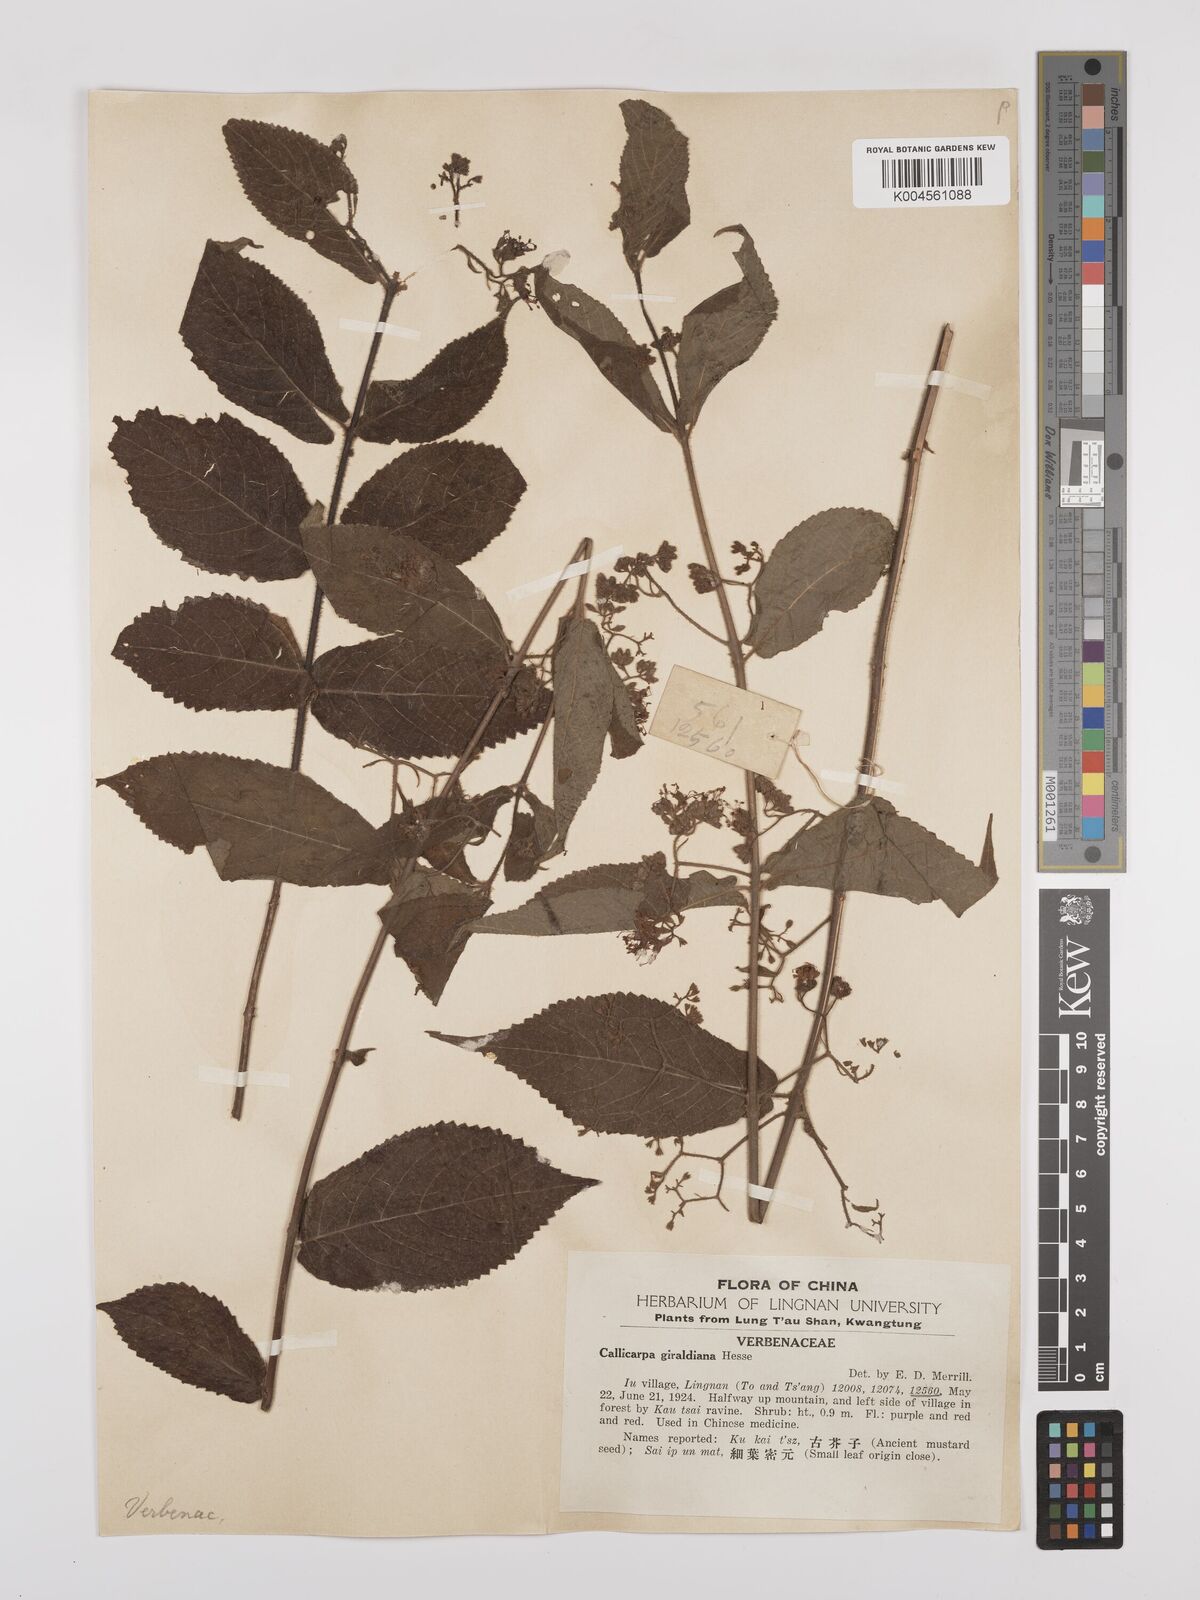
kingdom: Plantae
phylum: Tracheophyta
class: Magnoliopsida
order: Lamiales
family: Lamiaceae
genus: Callicarpa
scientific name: Callicarpa rubella
